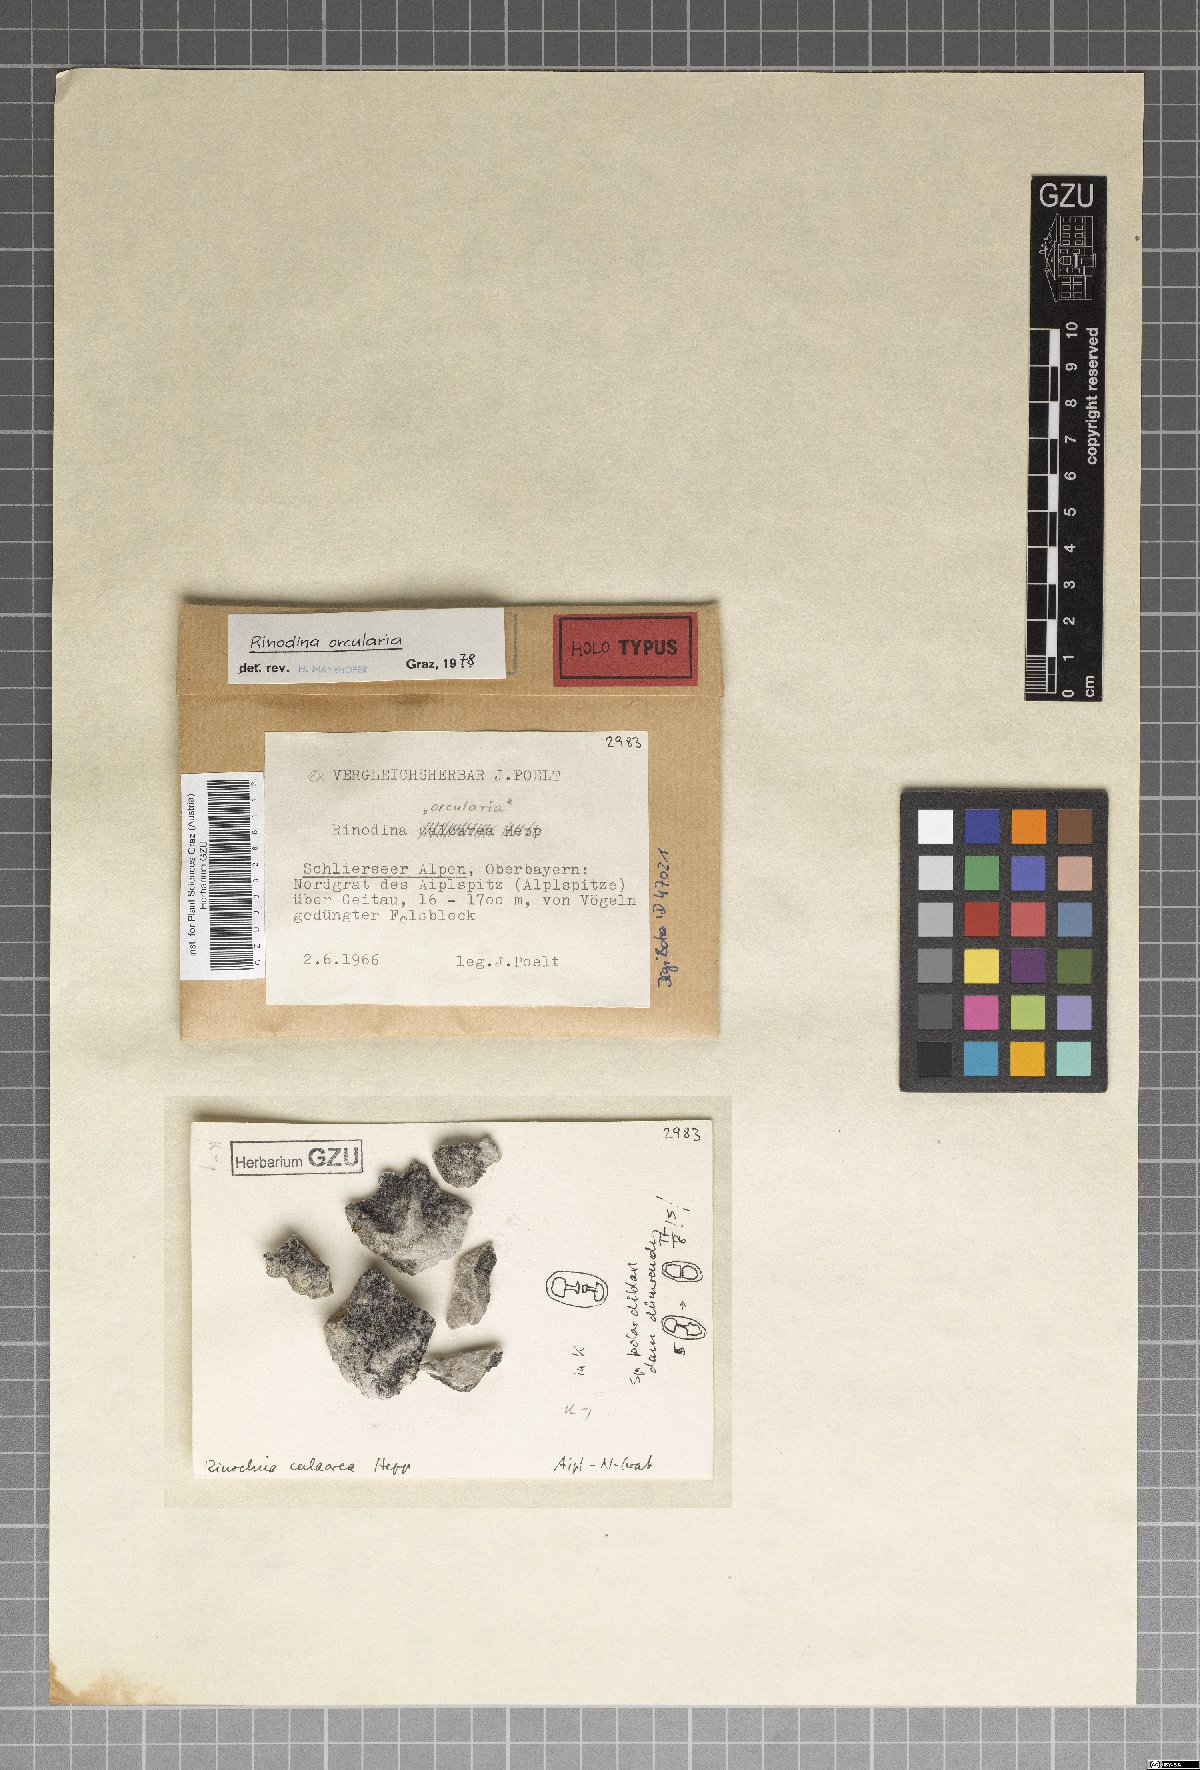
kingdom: Fungi
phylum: Ascomycota
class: Lecanoromycetes
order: Caliciales
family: Physciaceae
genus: Oxnerella
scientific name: Oxnerella castanomelodes
